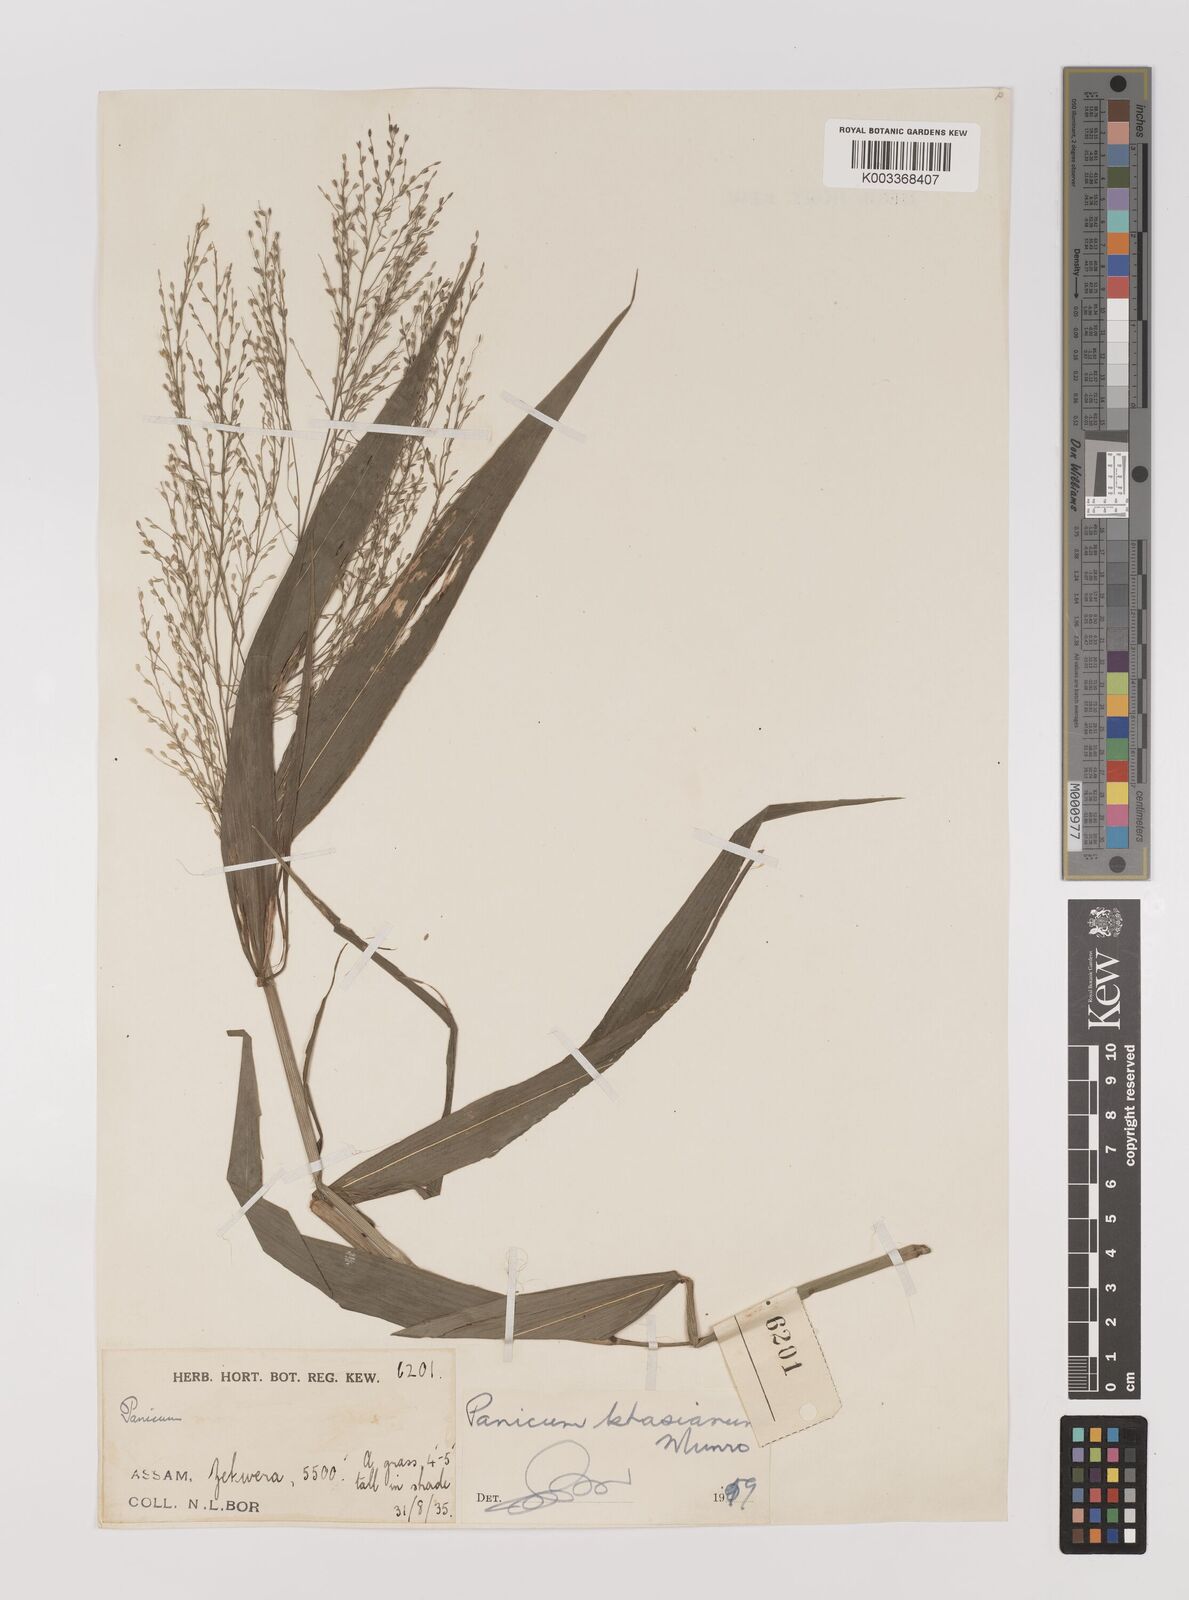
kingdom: Plantae
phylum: Tracheophyta
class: Liliopsida
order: Poales
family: Poaceae
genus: Panicum
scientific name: Panicum khasianum
